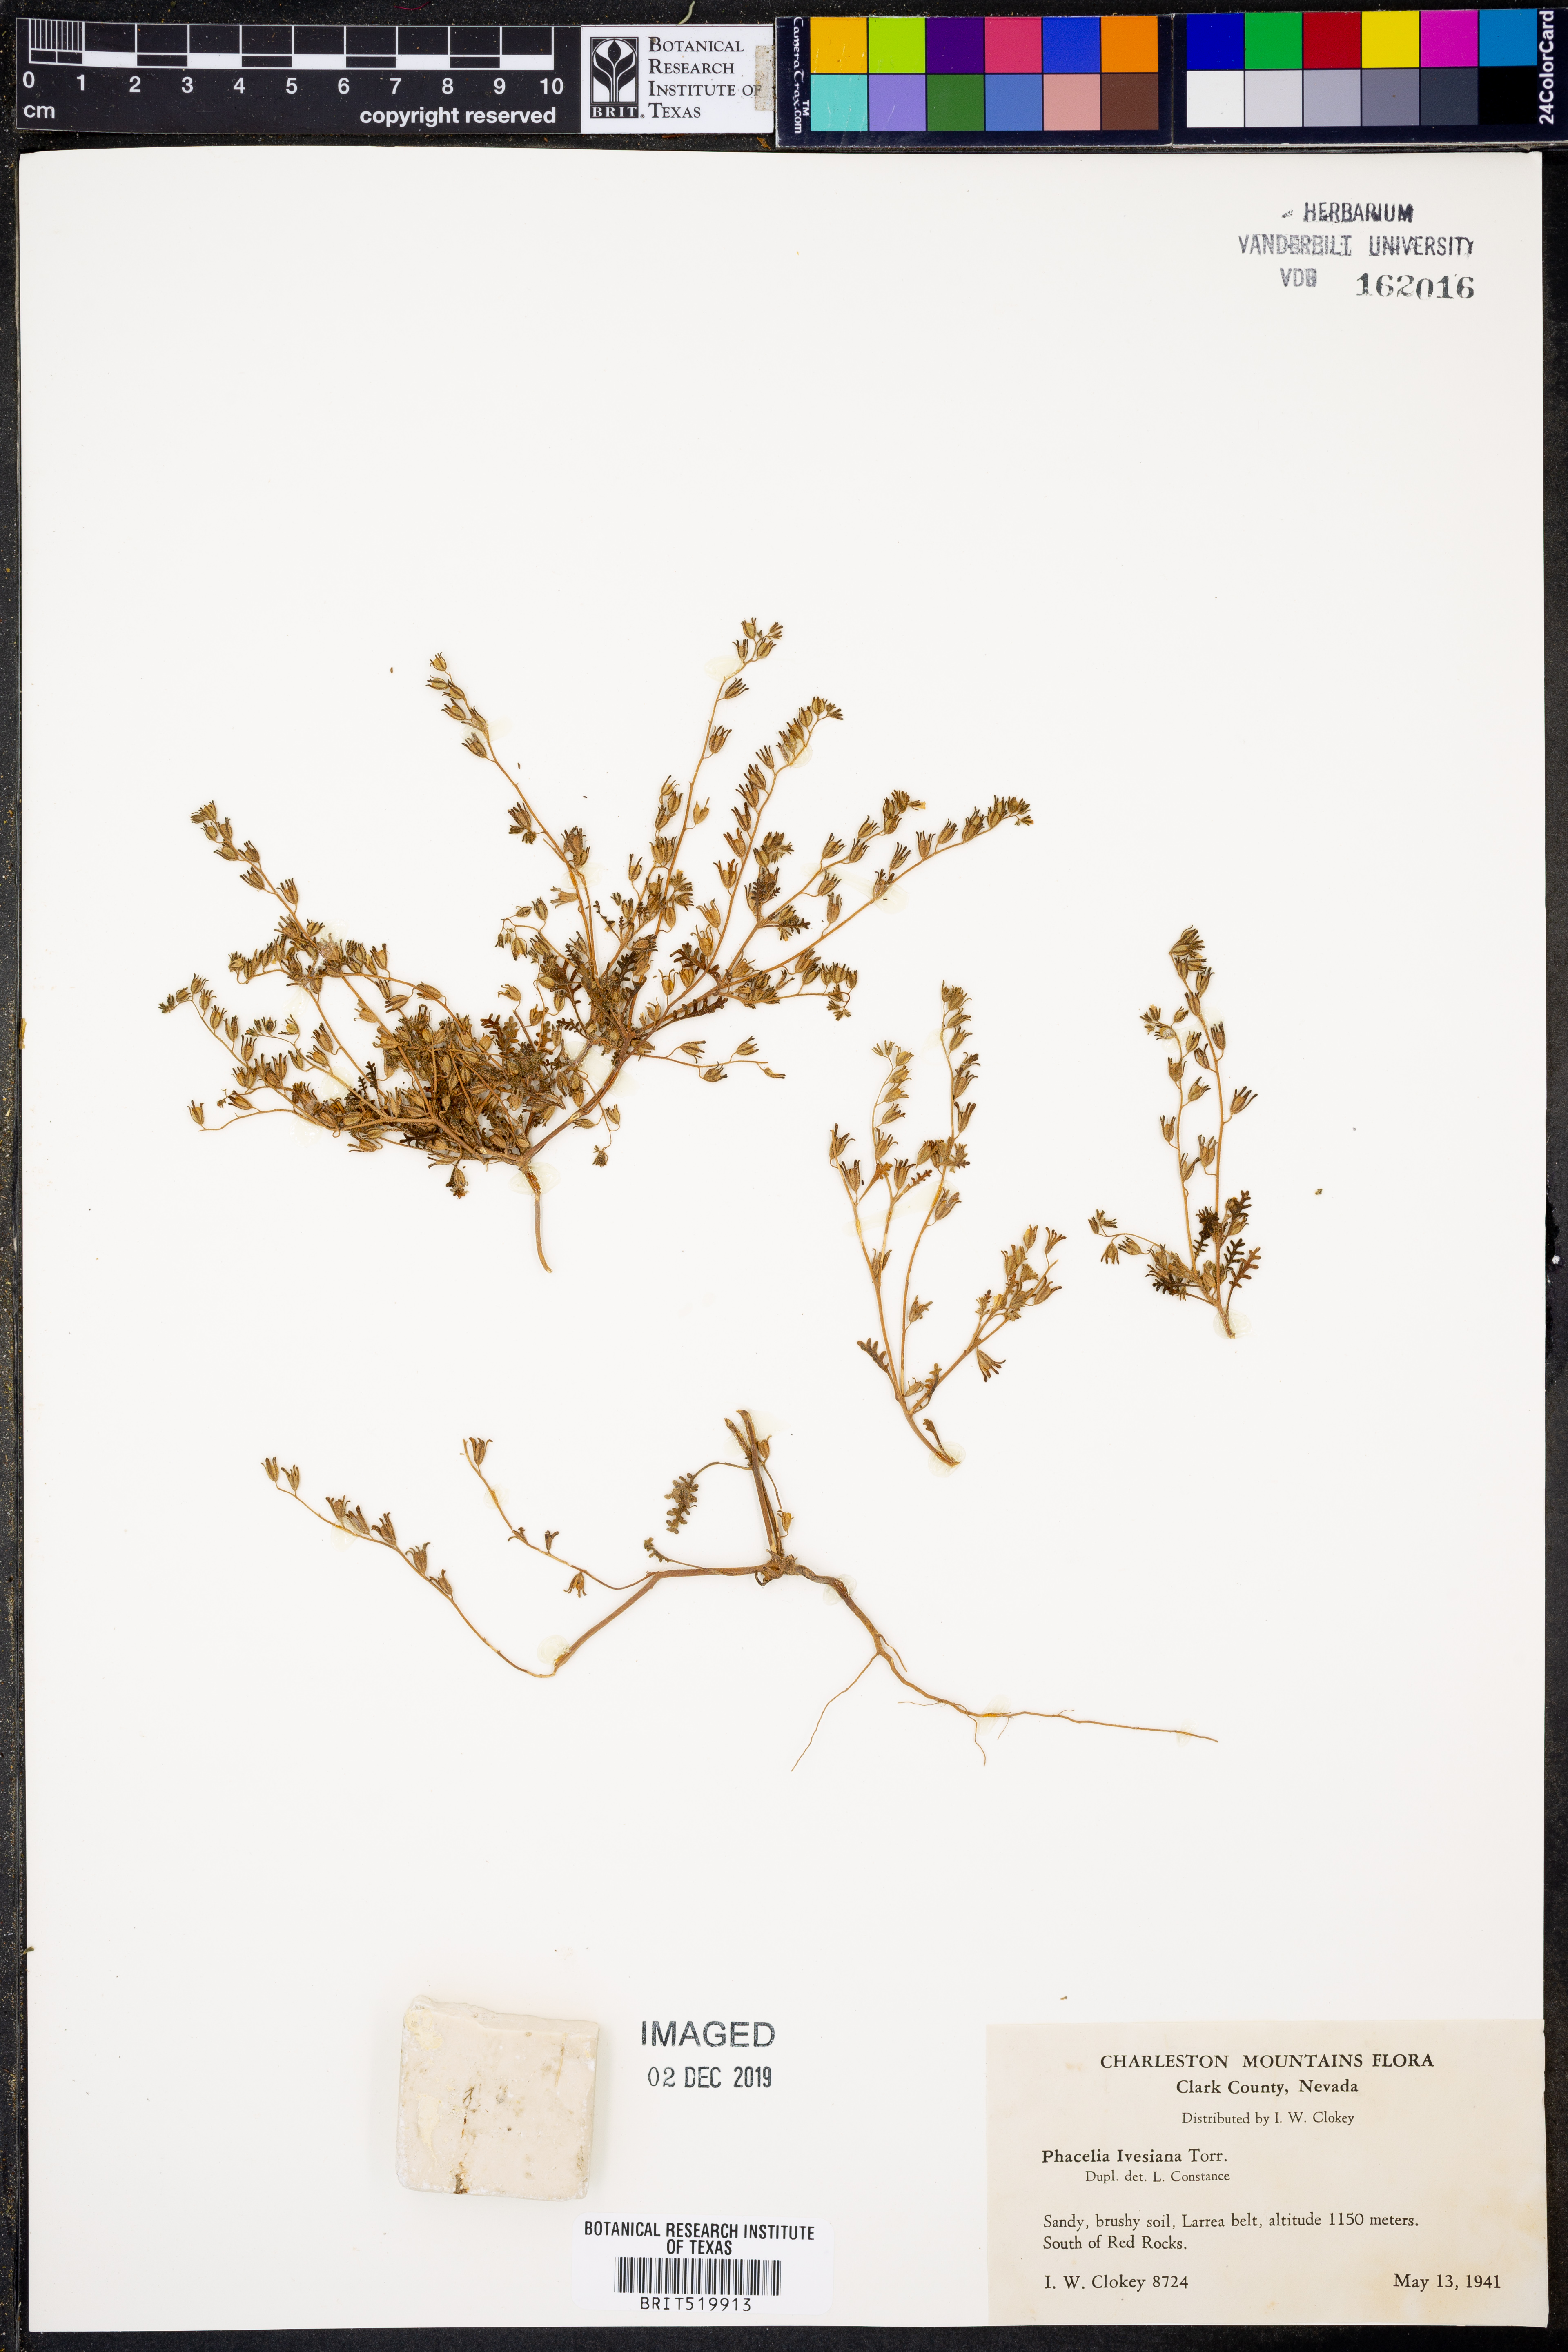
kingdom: Plantae
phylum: Tracheophyta
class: Magnoliopsida
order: Boraginales
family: Hydrophyllaceae
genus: Phacelia
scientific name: Phacelia ivesiana
